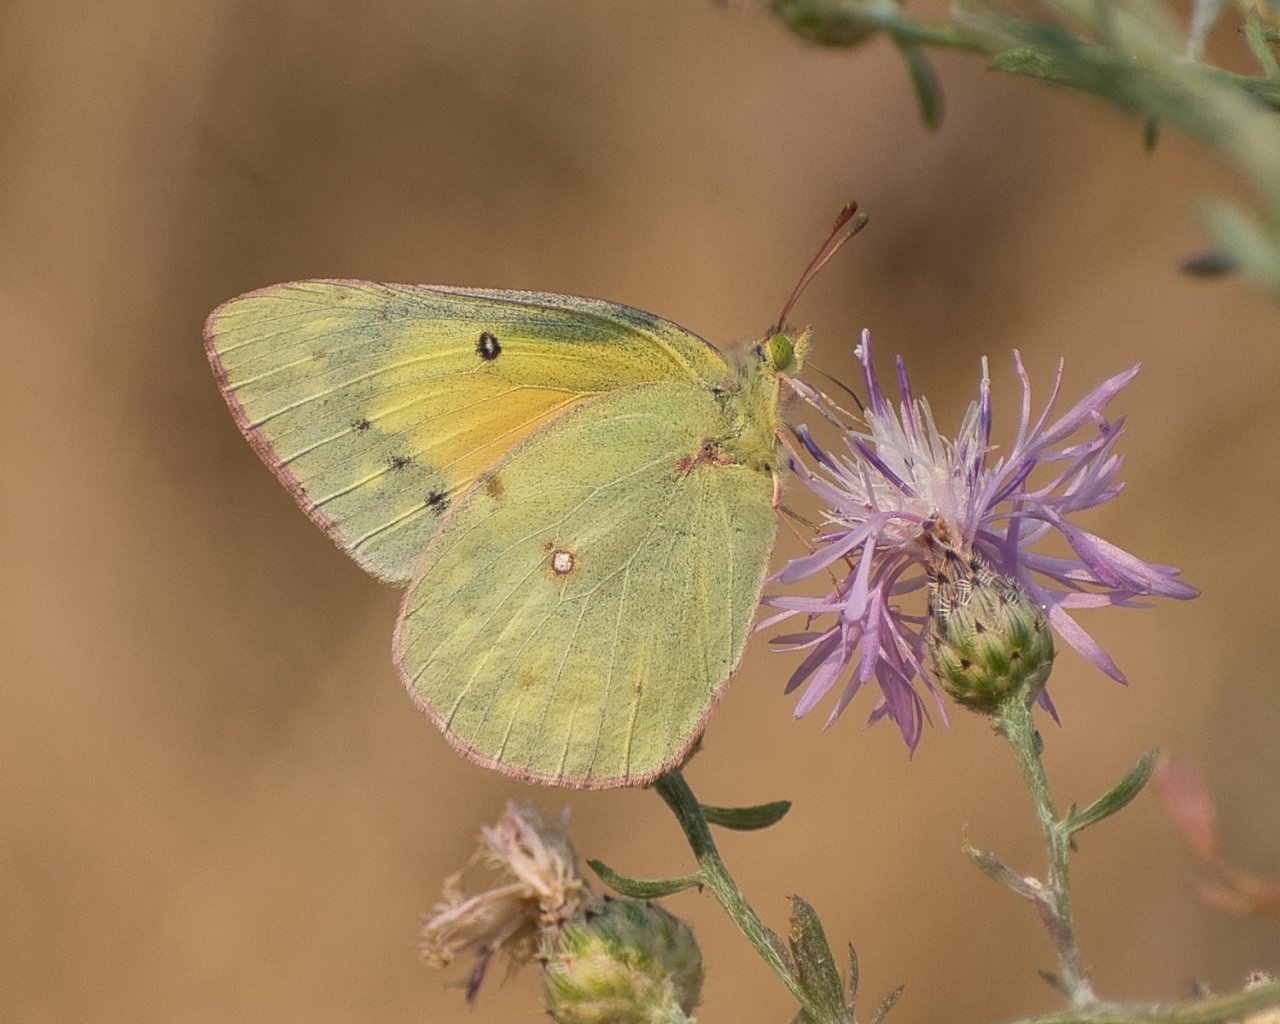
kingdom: Animalia
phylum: Arthropoda
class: Insecta
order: Lepidoptera
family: Pieridae
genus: Colias
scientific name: Colias eurytheme
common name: Orange Sulphur
